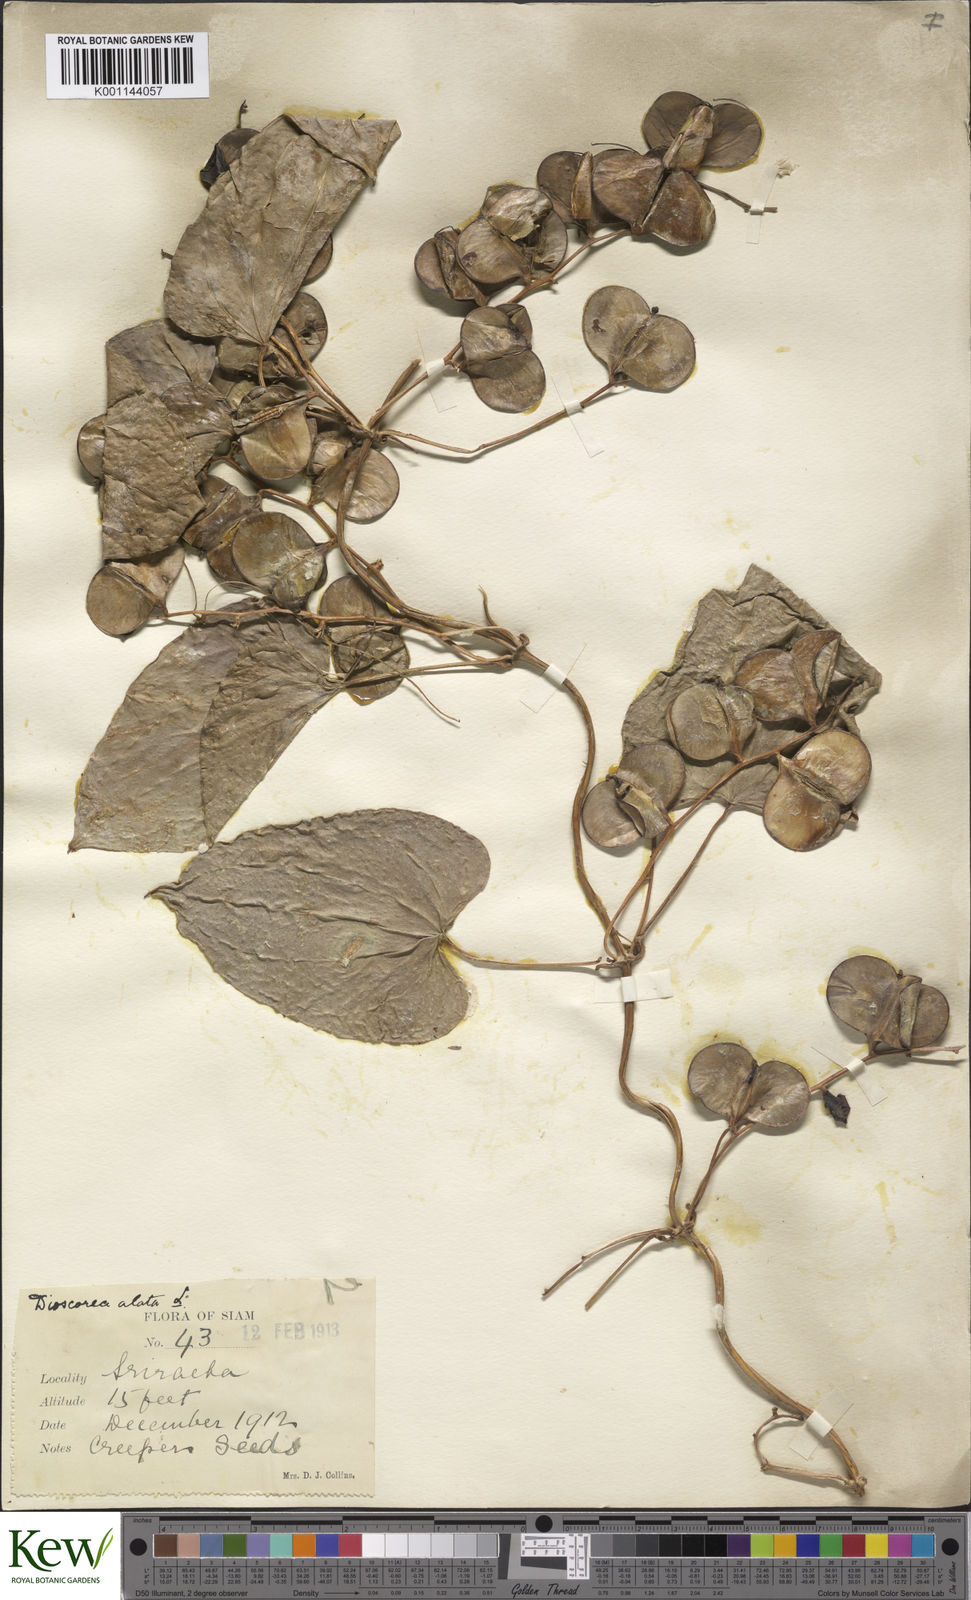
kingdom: Plantae
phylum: Tracheophyta
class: Liliopsida
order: Dioscoreales
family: Dioscoreaceae
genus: Dioscorea
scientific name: Dioscorea alata
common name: Water yam
